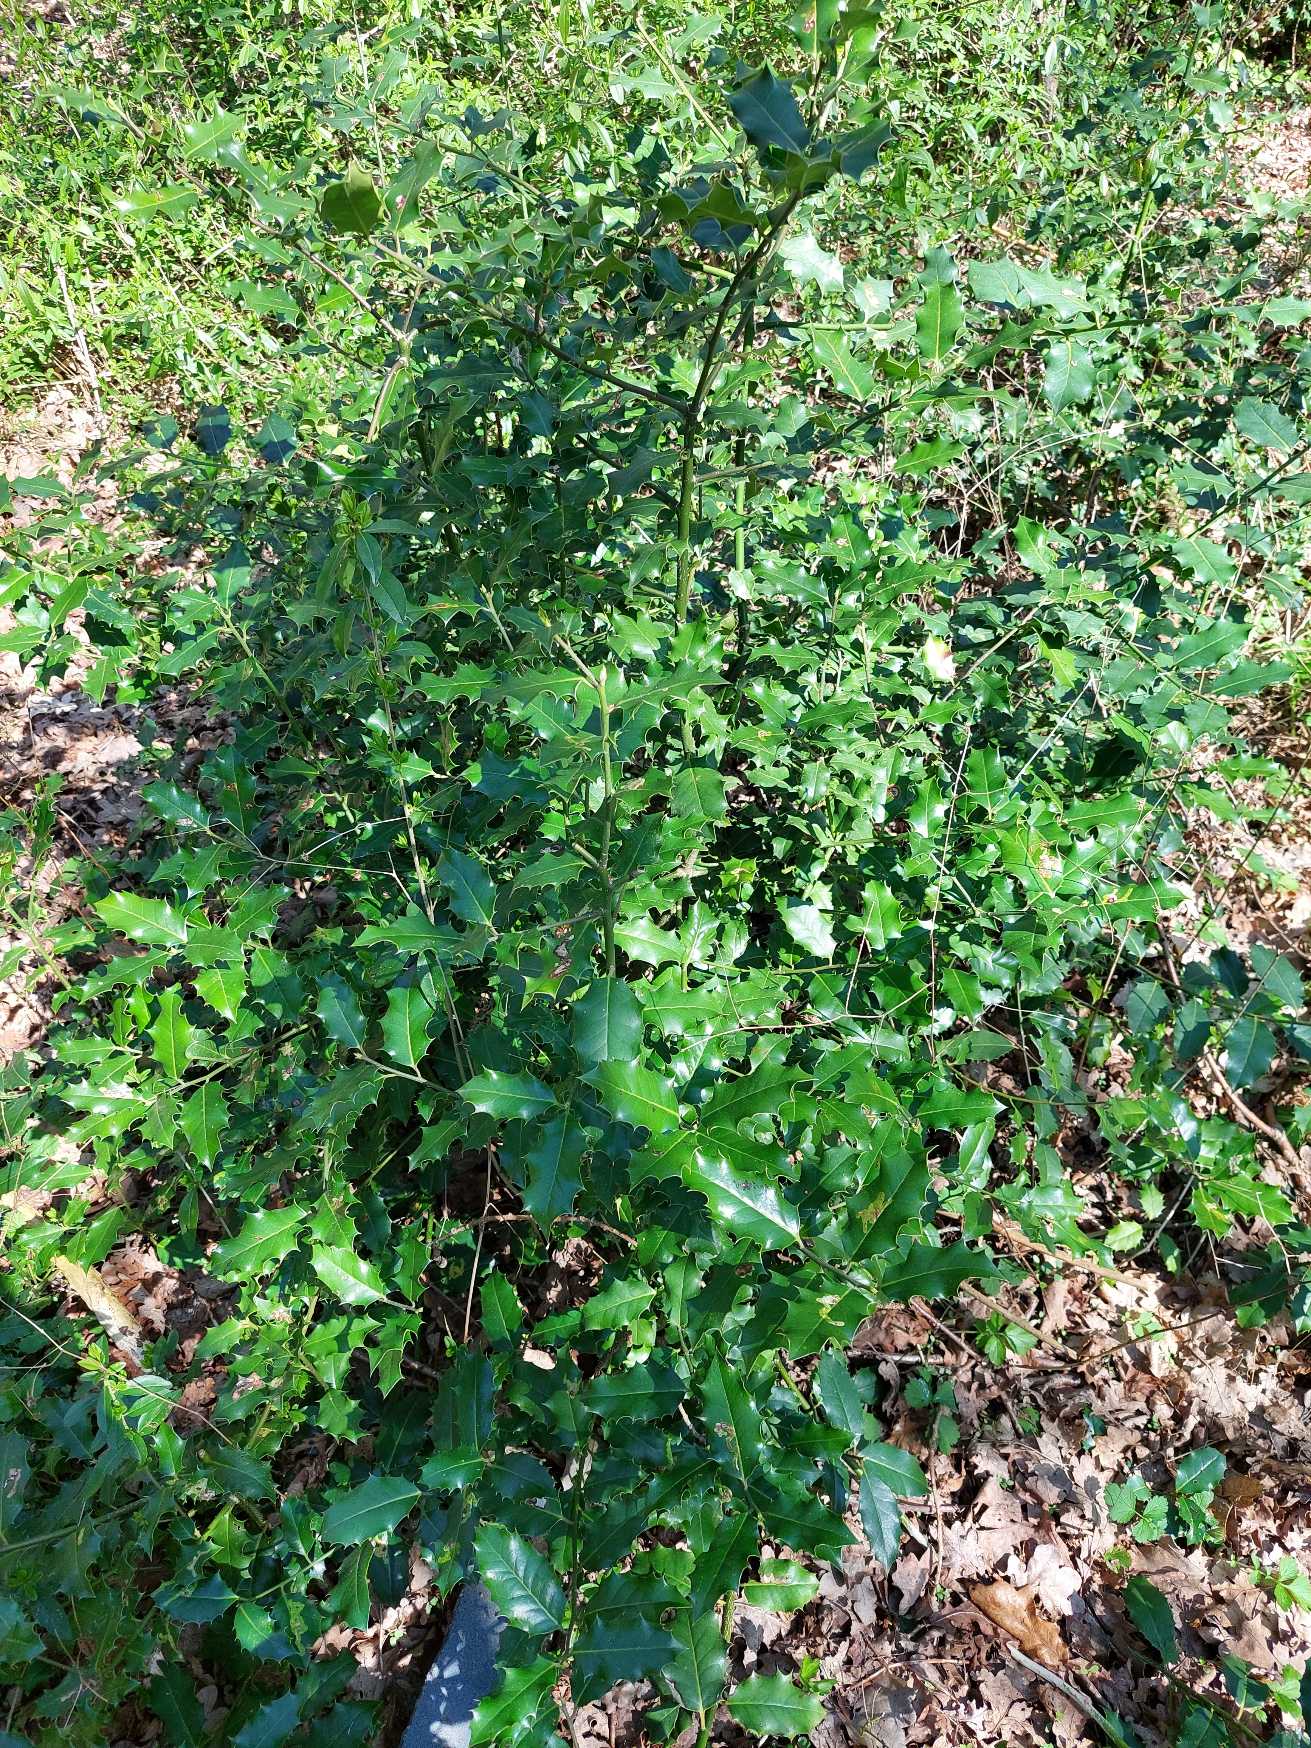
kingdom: Plantae
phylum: Tracheophyta
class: Magnoliopsida
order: Aquifoliales
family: Aquifoliaceae
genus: Ilex
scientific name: Ilex aquifolium
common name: Kristtorn
